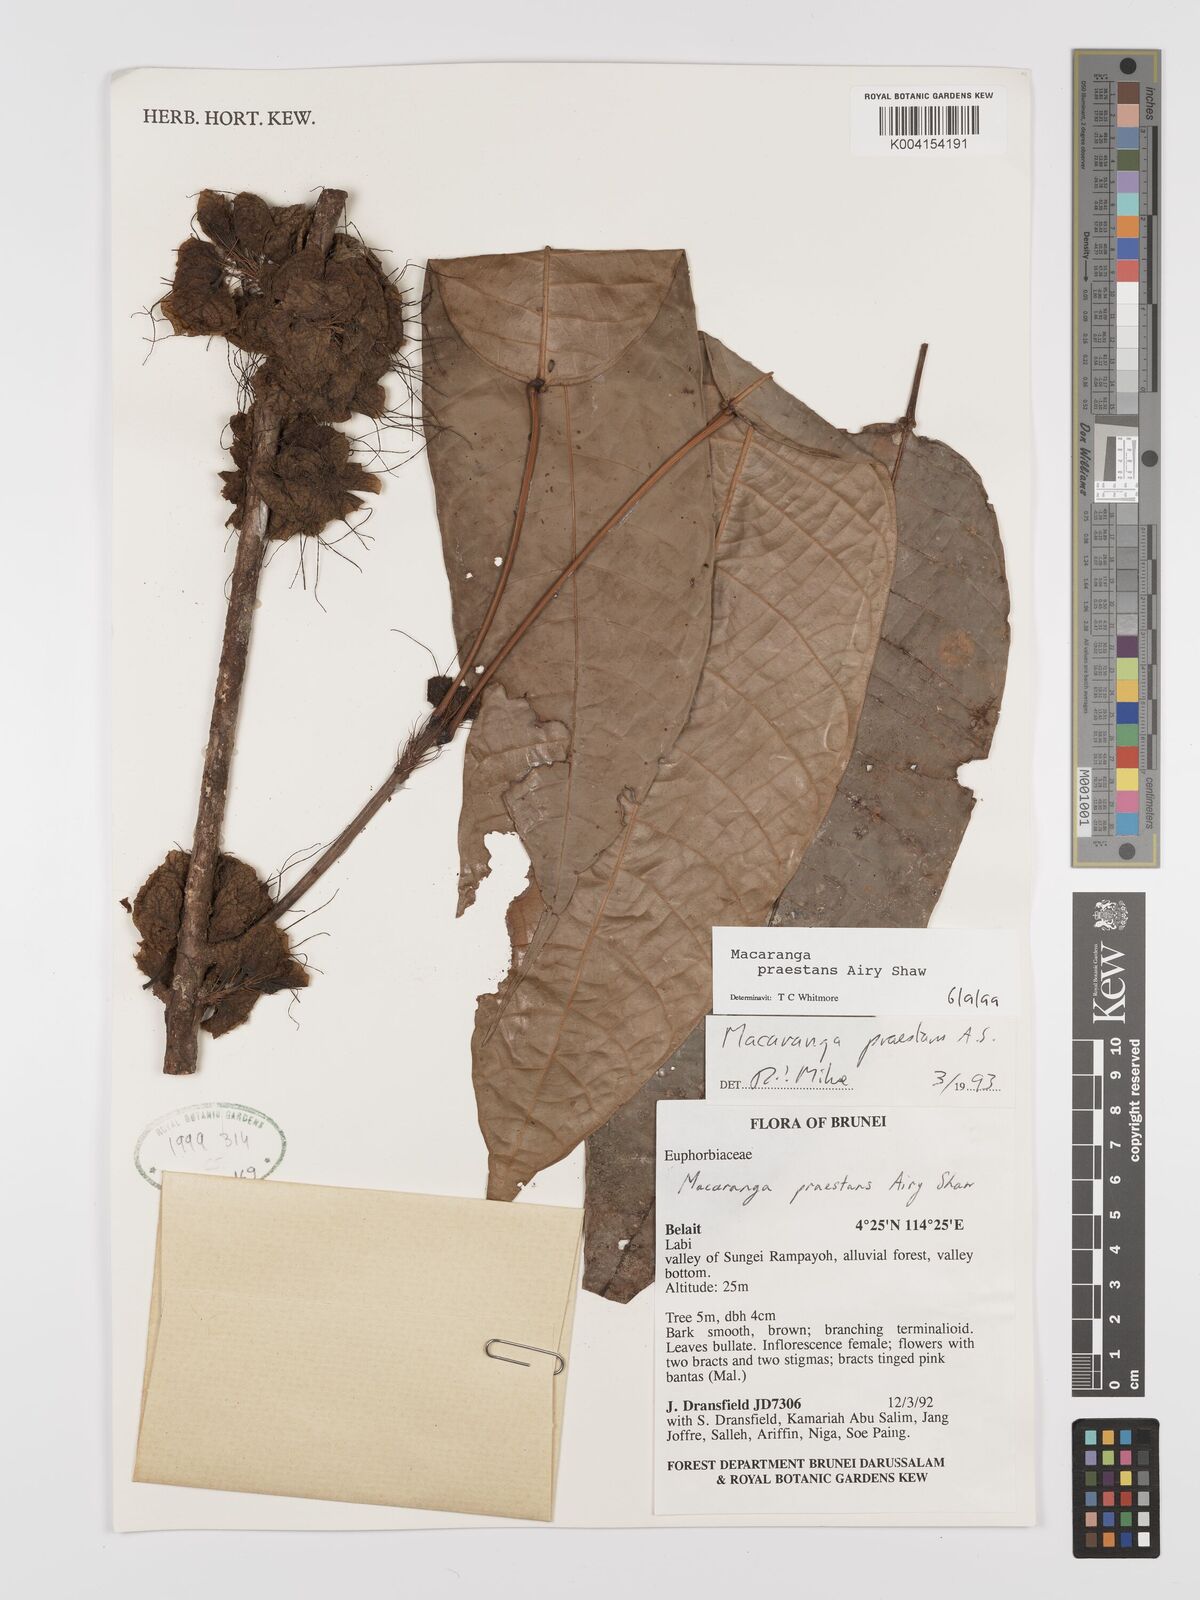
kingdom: Plantae
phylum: Tracheophyta
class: Magnoliopsida
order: Malpighiales
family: Euphorbiaceae
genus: Macaranga
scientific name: Macaranga praestans
